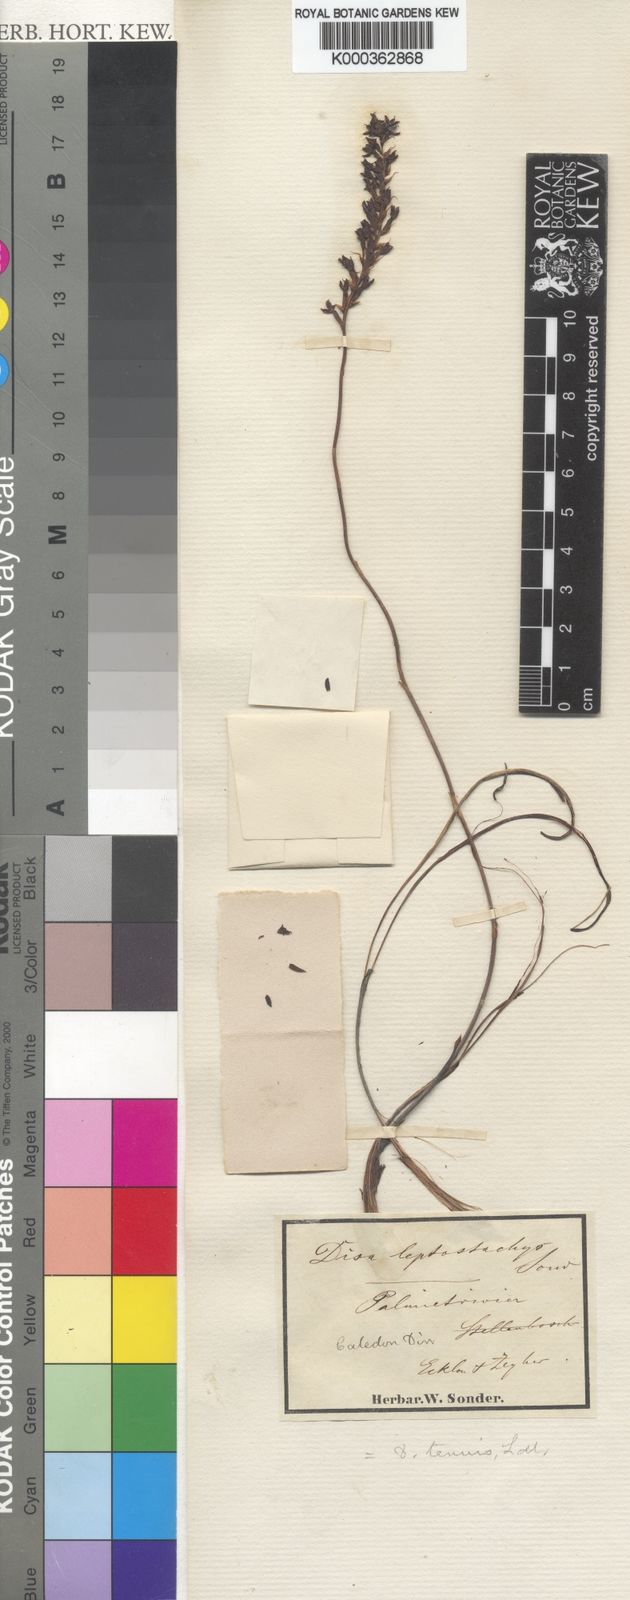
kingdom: Plantae
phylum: Tracheophyta
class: Liliopsida
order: Asparagales
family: Orchidaceae
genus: Disa
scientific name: Disa tenuis
